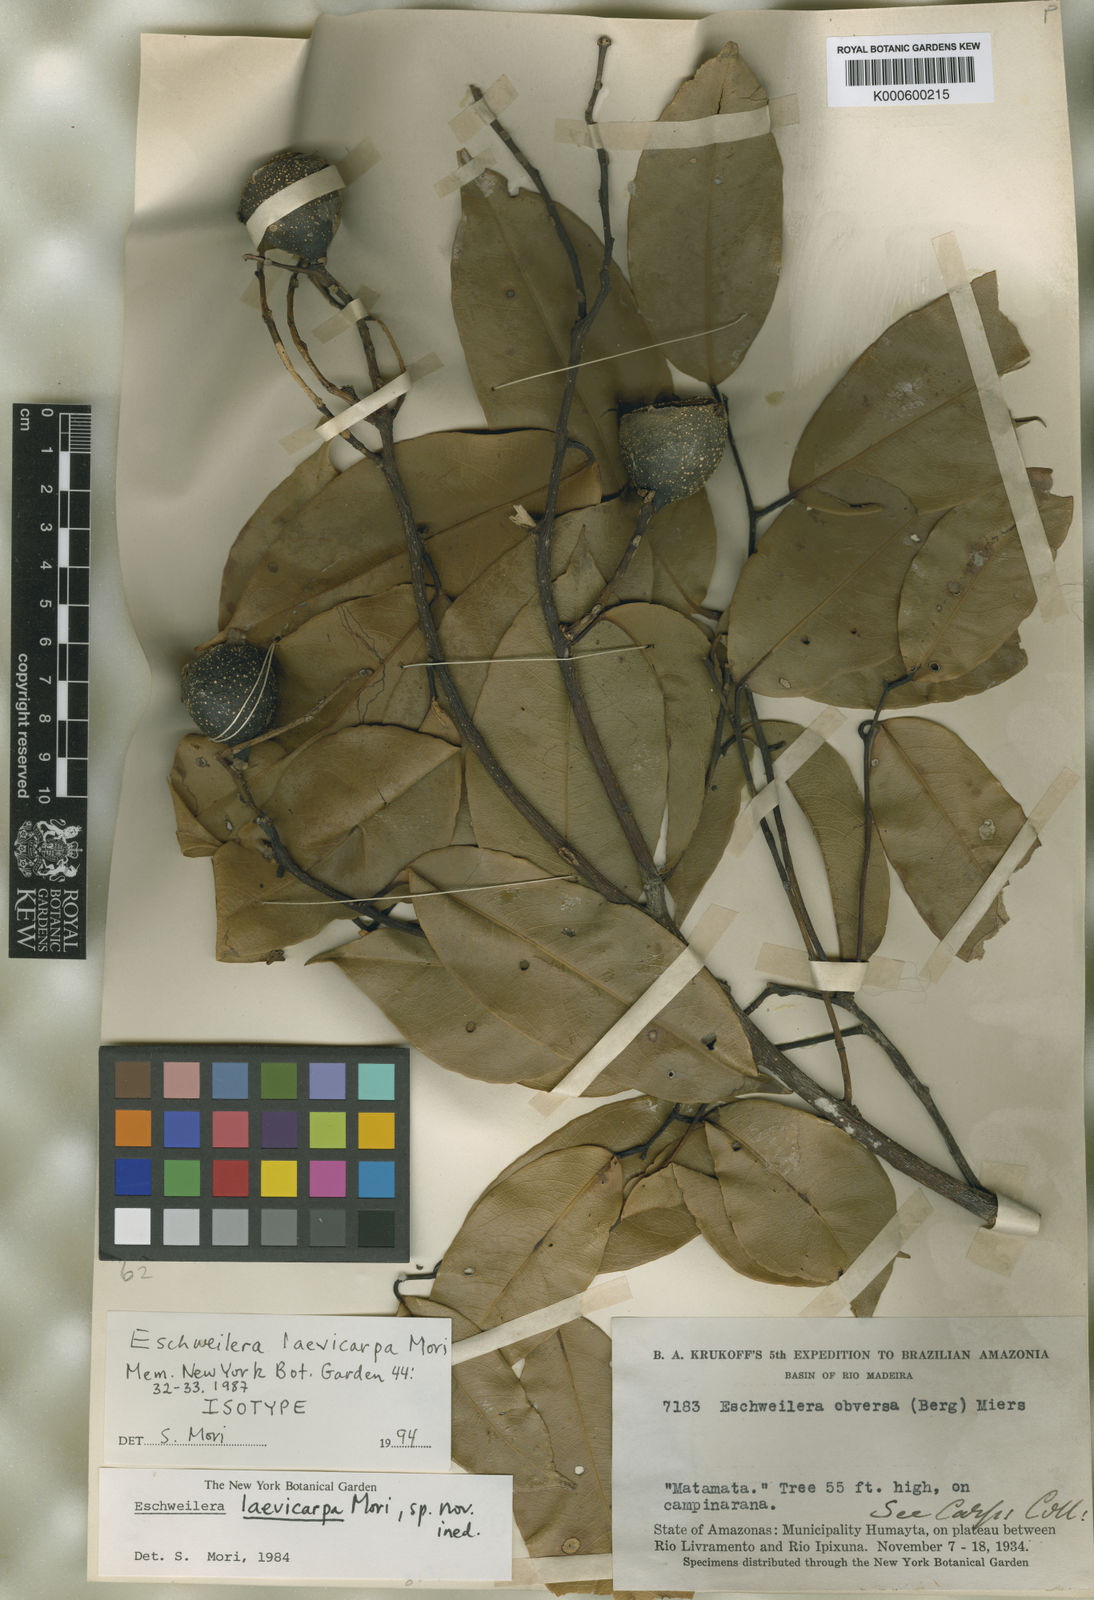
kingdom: Plantae
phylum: Tracheophyta
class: Magnoliopsida
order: Ericales
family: Lecythidaceae
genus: Eschweilera
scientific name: Eschweilera laevicarpa
